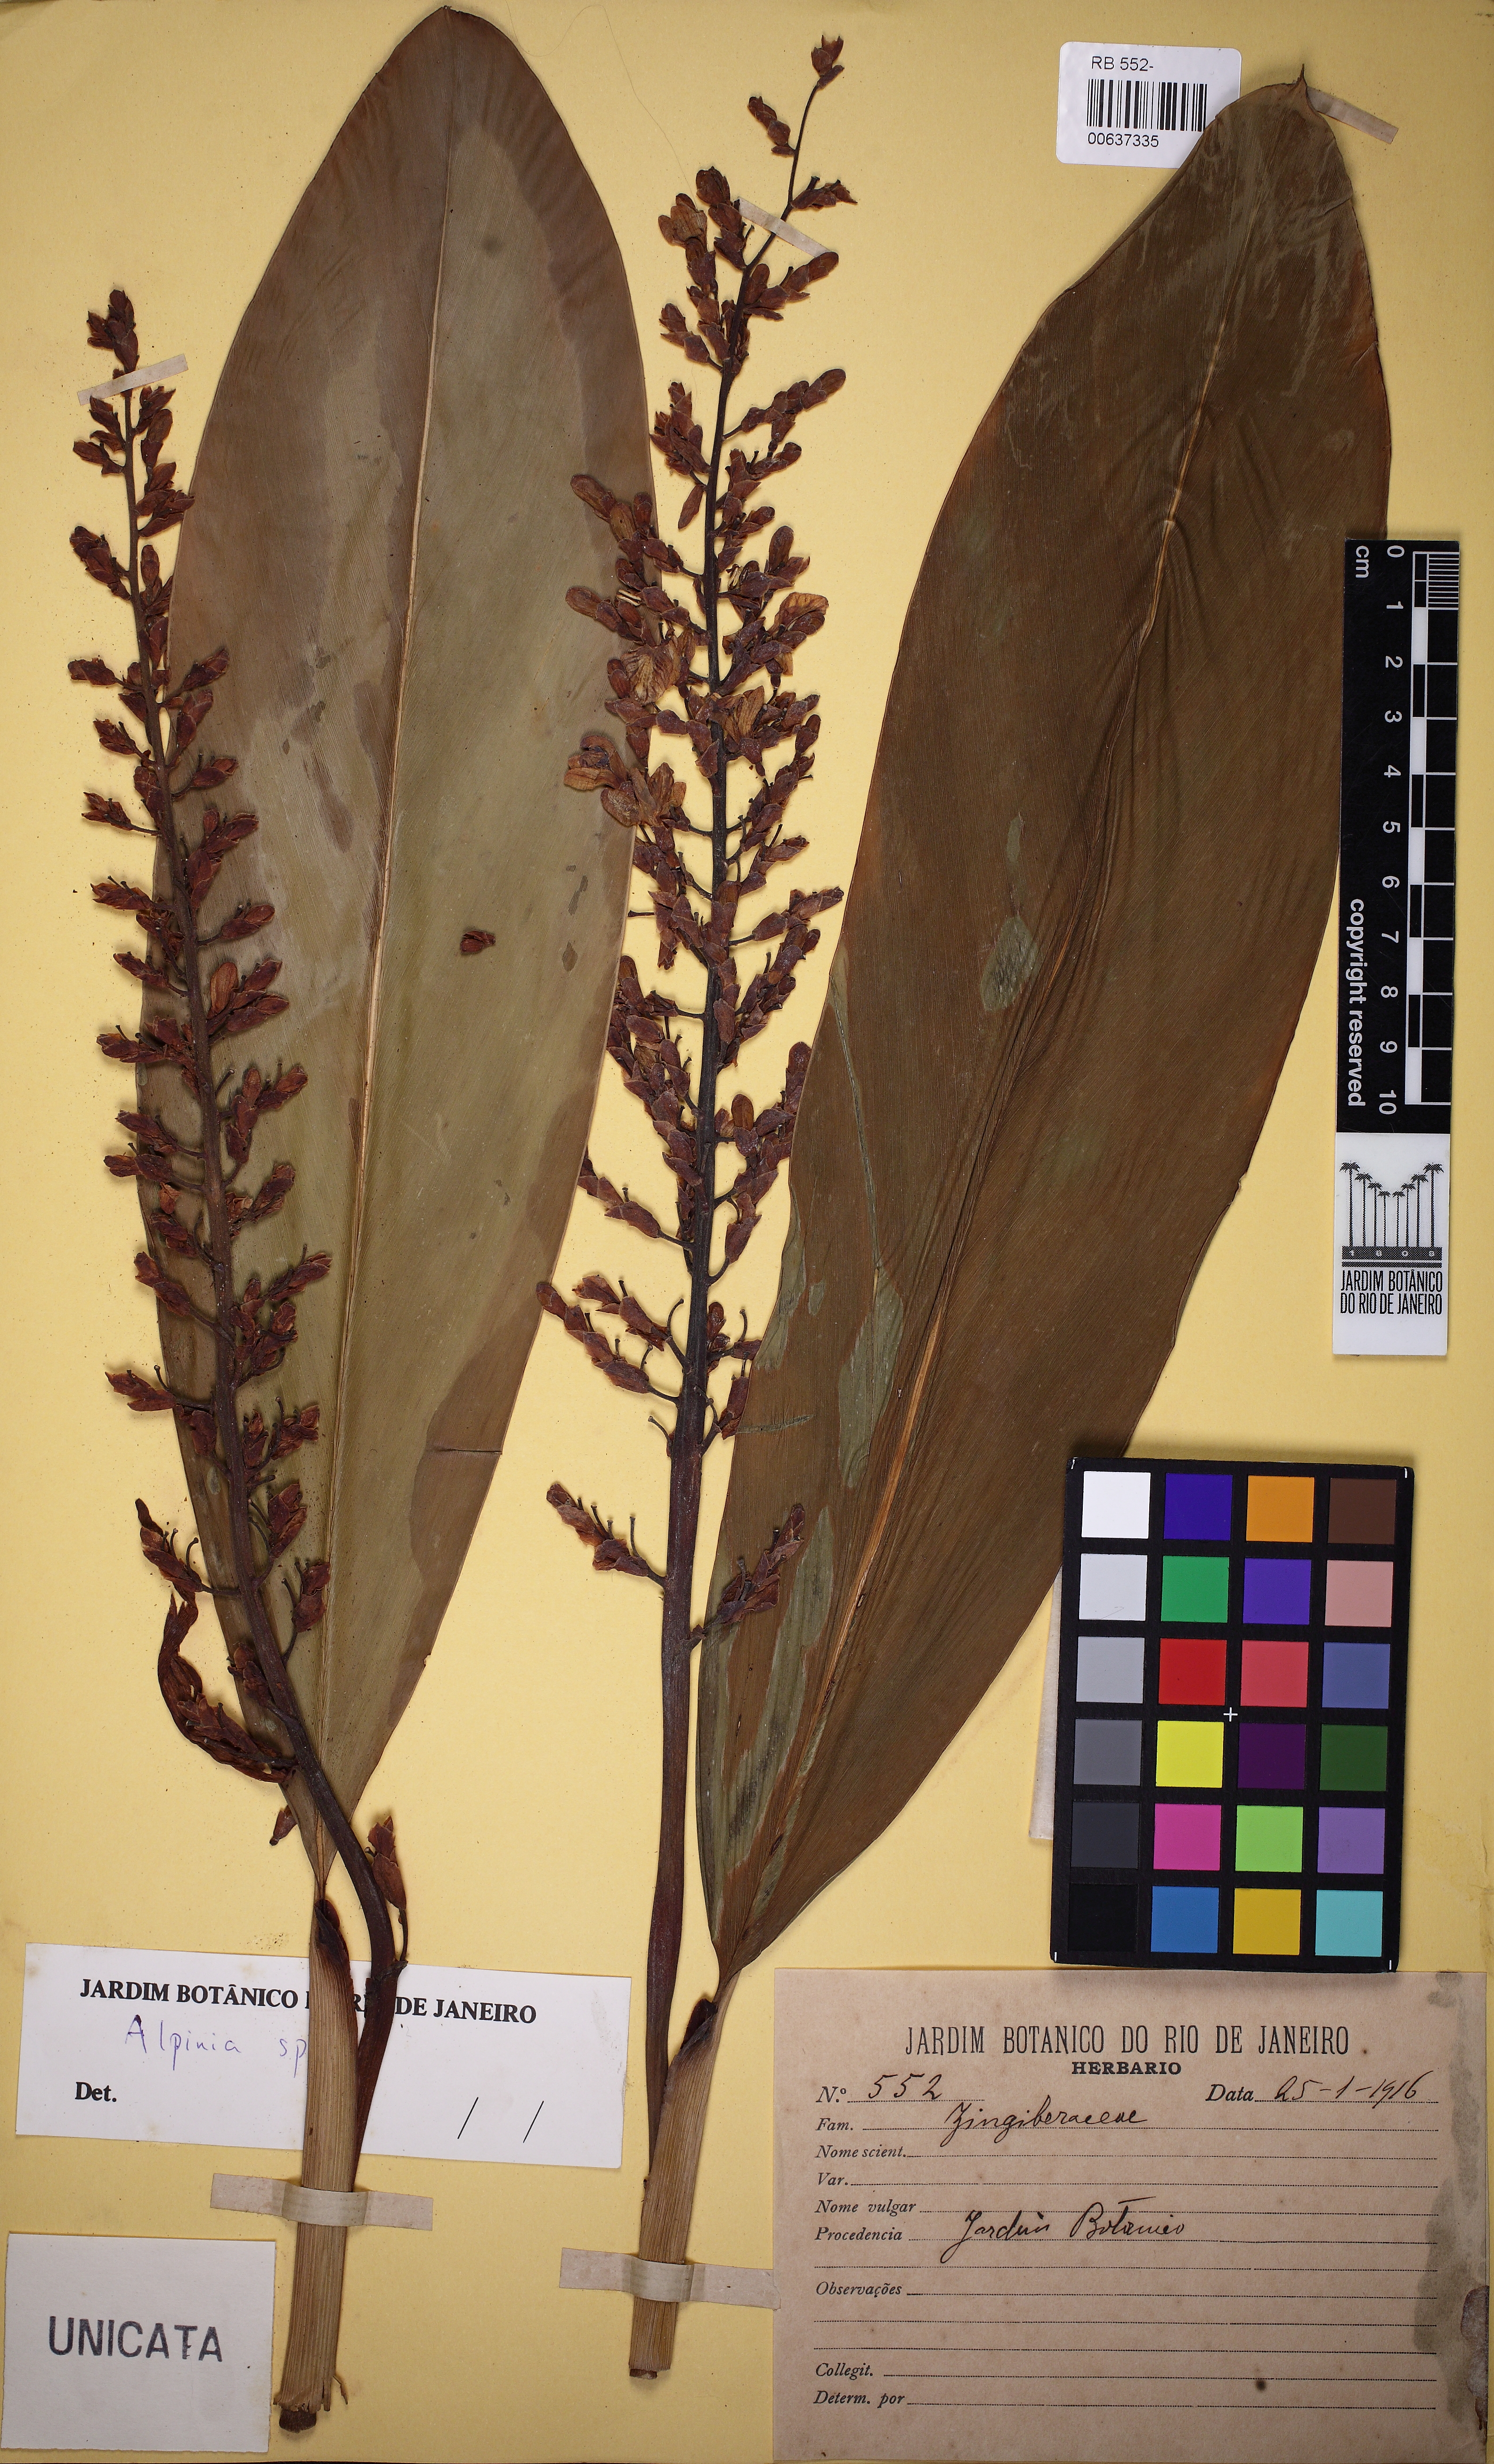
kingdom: Plantae
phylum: Tracheophyta
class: Liliopsida
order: Zingiberales
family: Zingiberaceae
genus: Alpinia
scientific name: Alpinia
